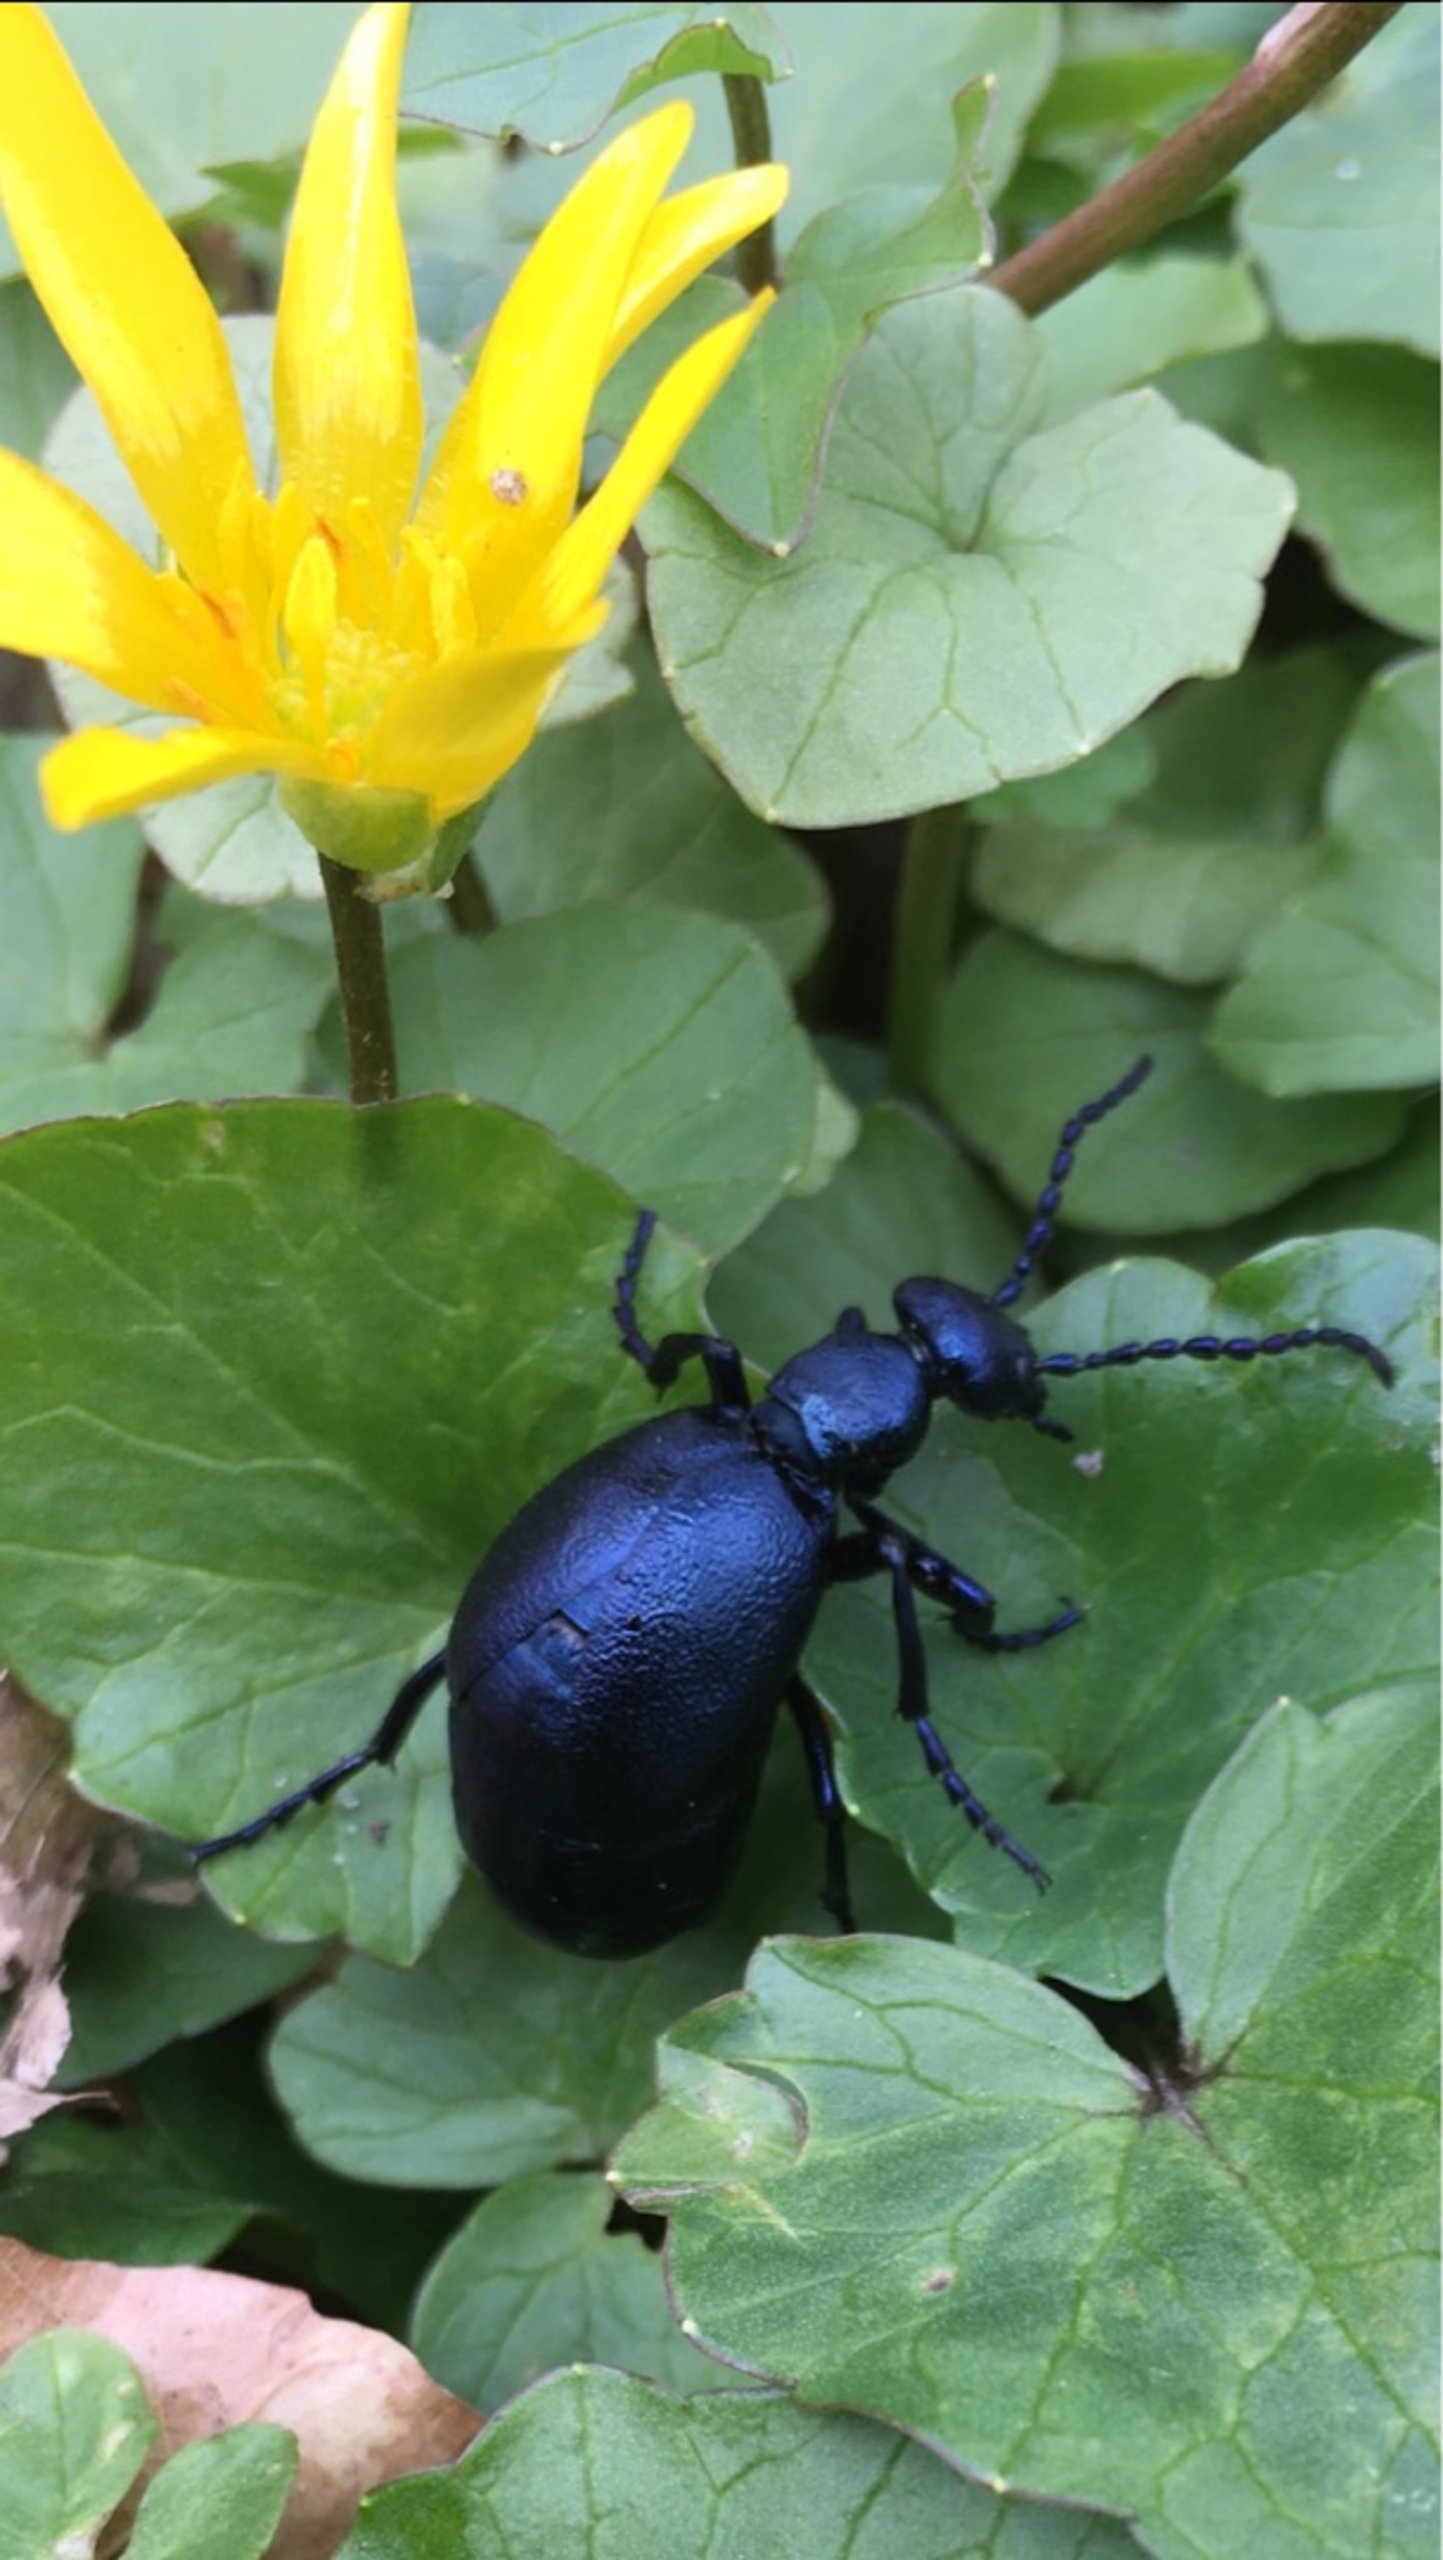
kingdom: Animalia
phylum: Arthropoda
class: Insecta
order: Coleoptera
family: Meloidae
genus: Meloe
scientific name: Meloe violaceus
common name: Blå oliebille
